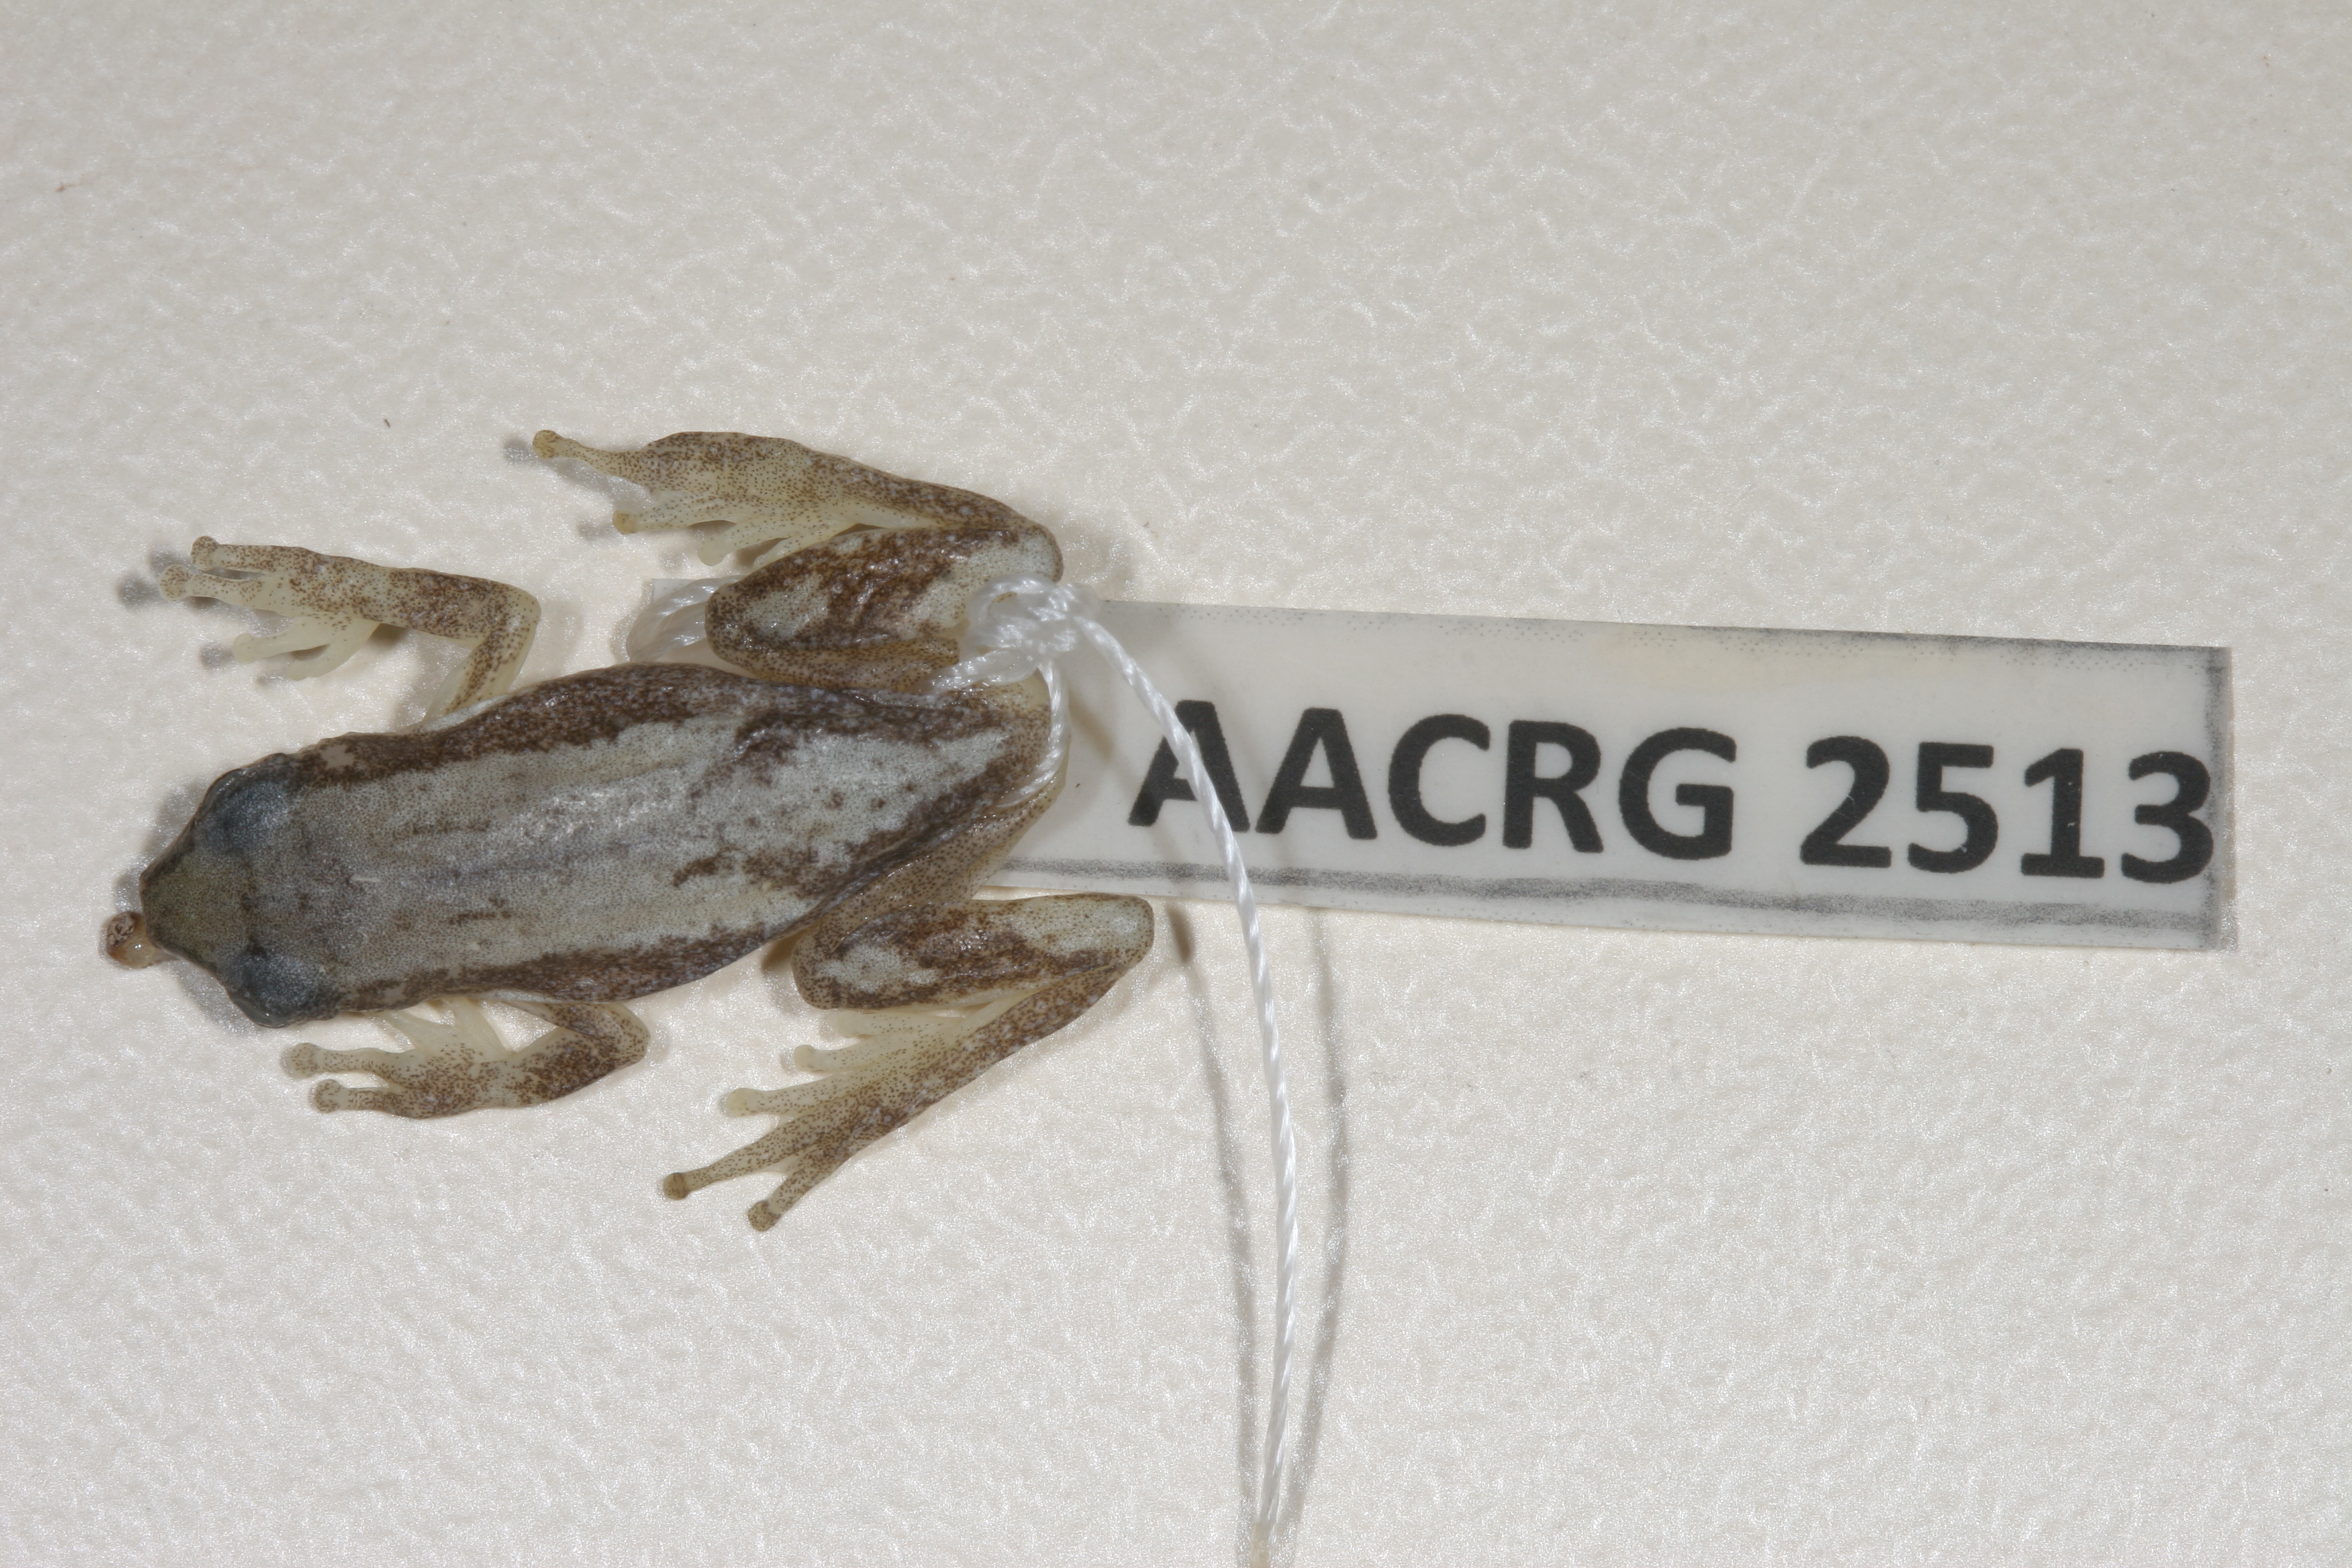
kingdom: Animalia
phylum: Chordata
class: Amphibia
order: Anura
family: Hyperoliidae
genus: Afrixalus
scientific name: Afrixalus aureus
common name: Golden banana frog
